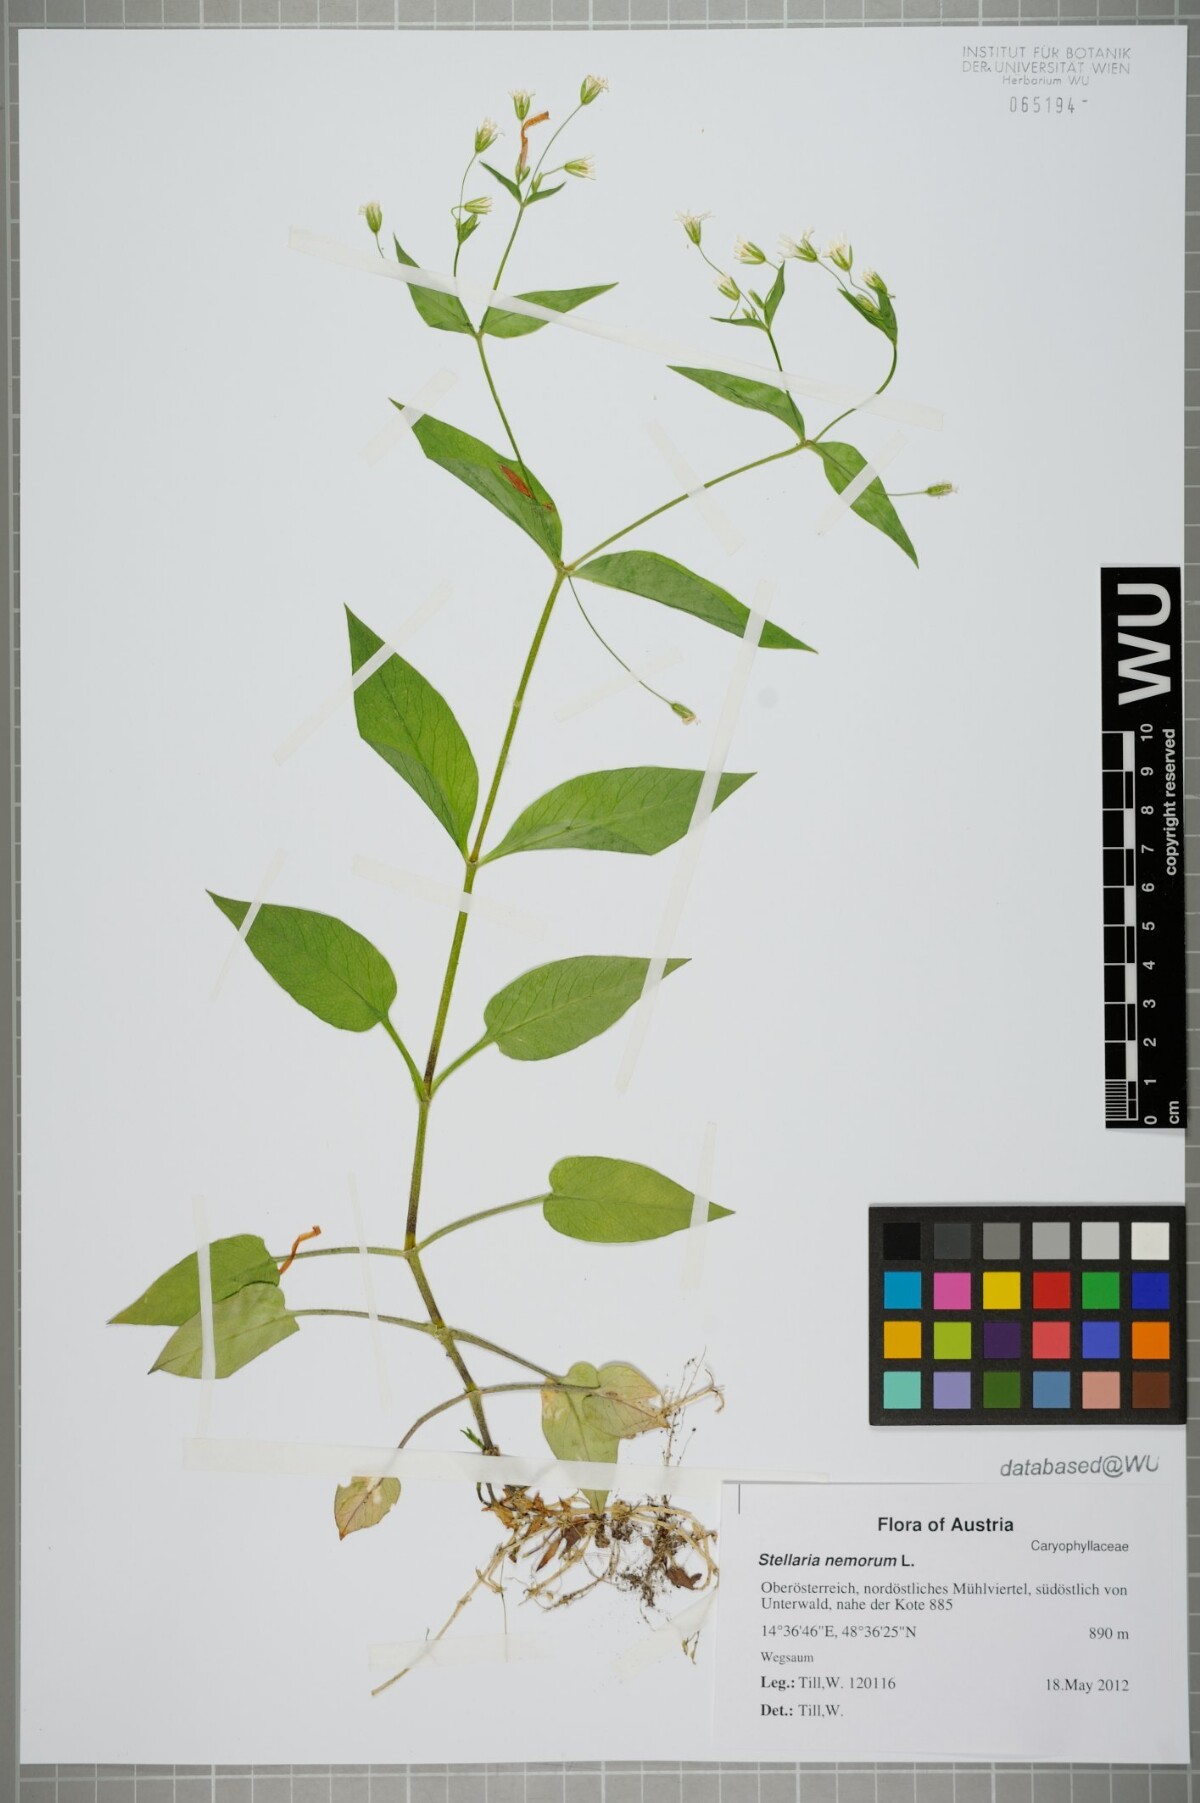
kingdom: Plantae
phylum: Tracheophyta
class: Magnoliopsida
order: Caryophyllales
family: Caryophyllaceae
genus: Stellaria
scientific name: Stellaria nemorum
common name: Wood stitchwort
